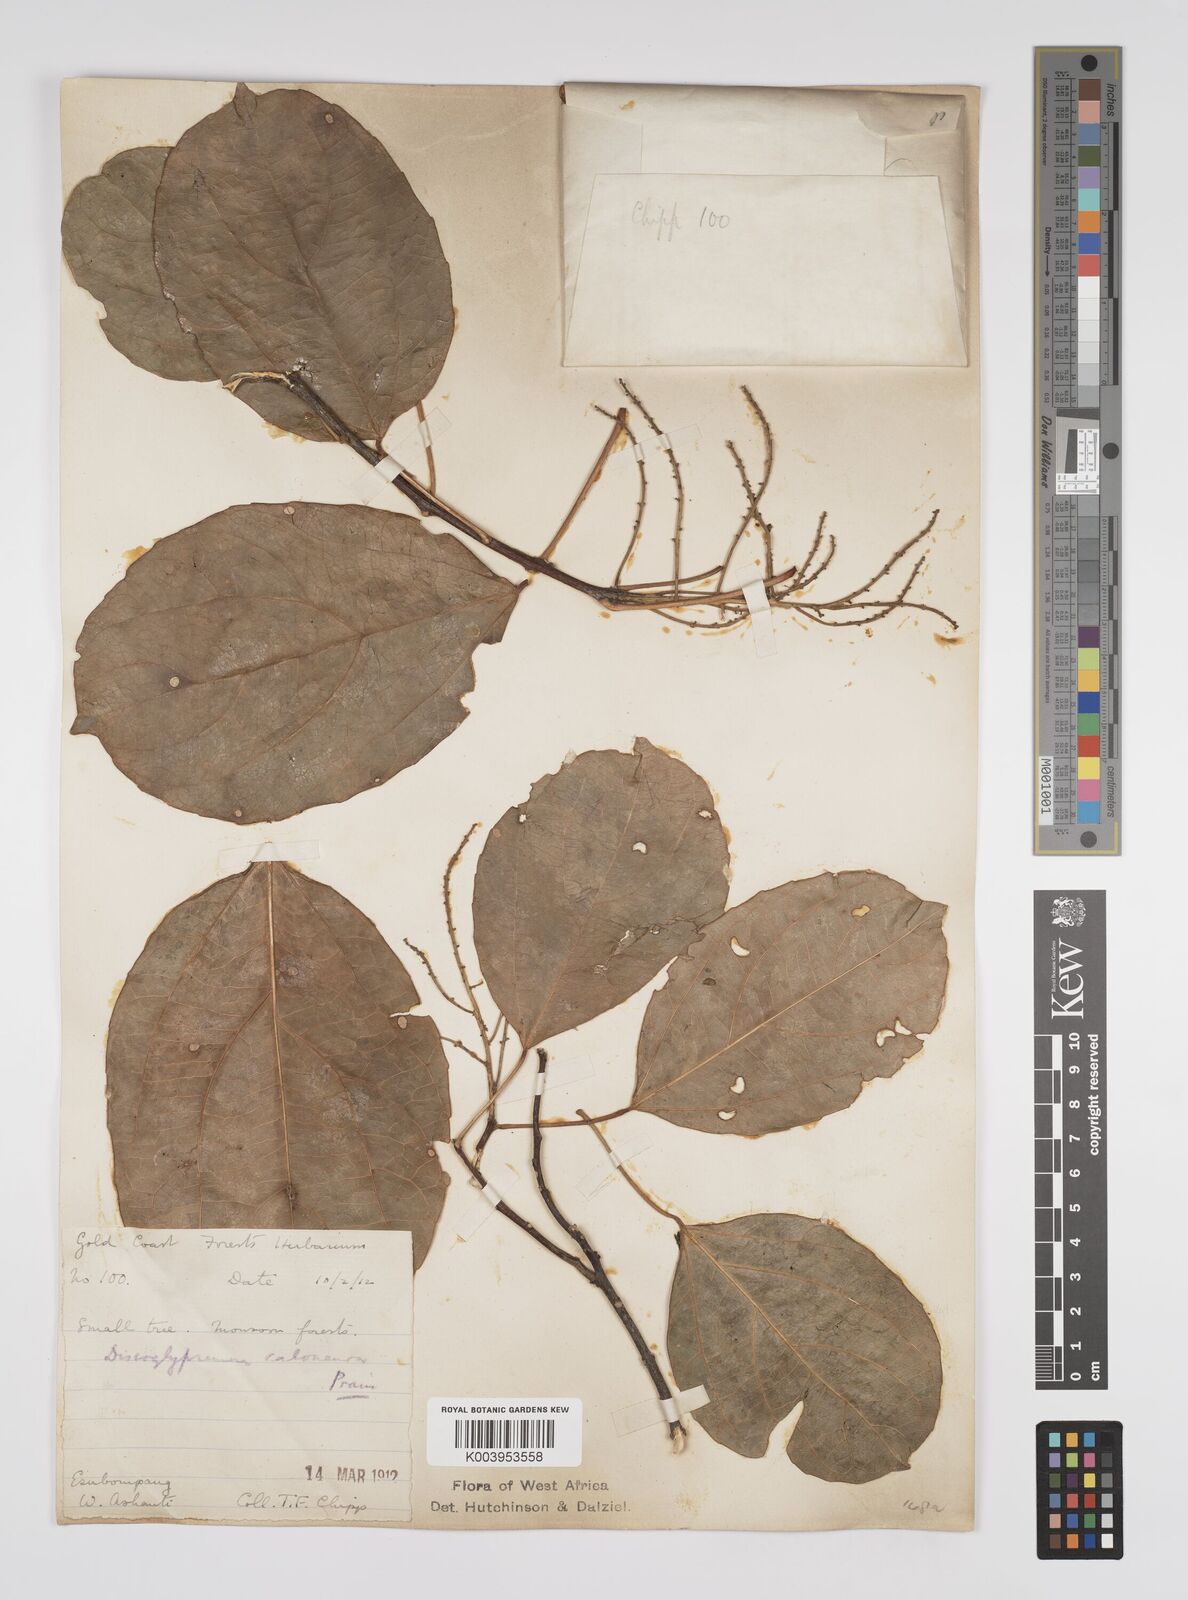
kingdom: Plantae
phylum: Tracheophyta
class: Magnoliopsida
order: Malpighiales
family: Euphorbiaceae
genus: Discoglypremna
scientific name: Discoglypremna caloneura
